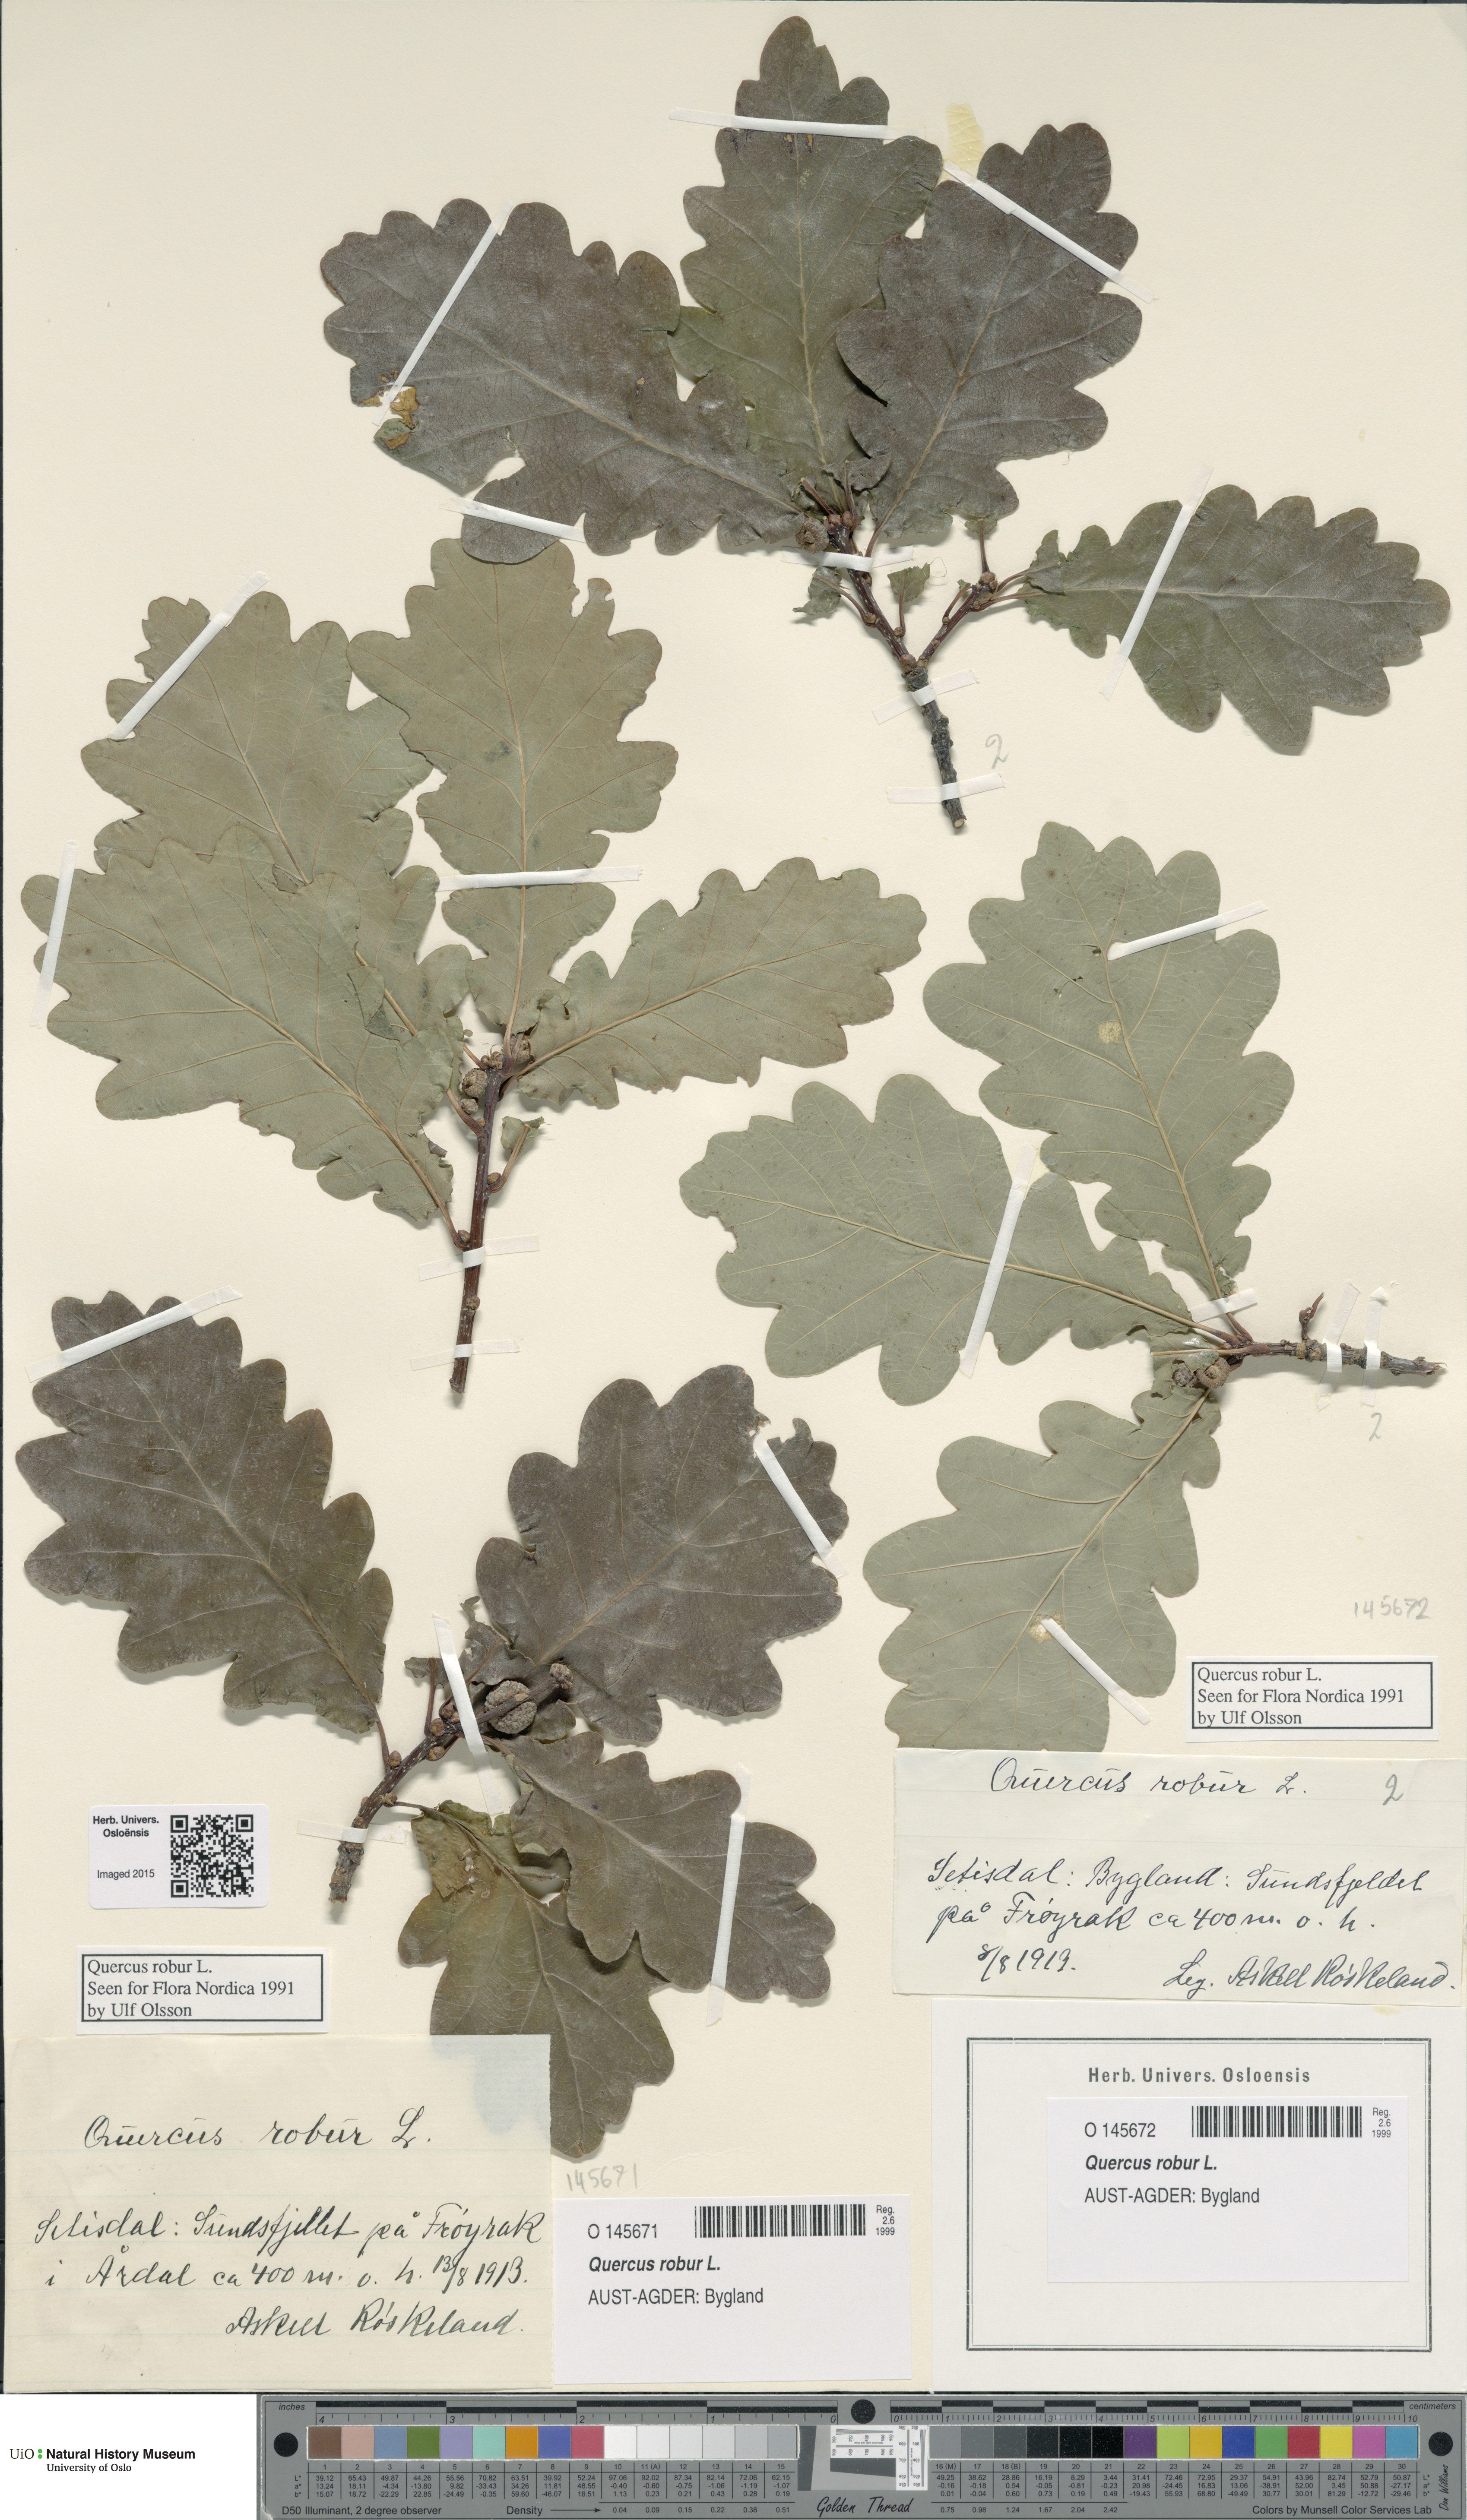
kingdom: Plantae
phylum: Tracheophyta
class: Magnoliopsida
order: Fagales
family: Fagaceae
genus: Quercus
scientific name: Quercus robur
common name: Pedunculate oak
